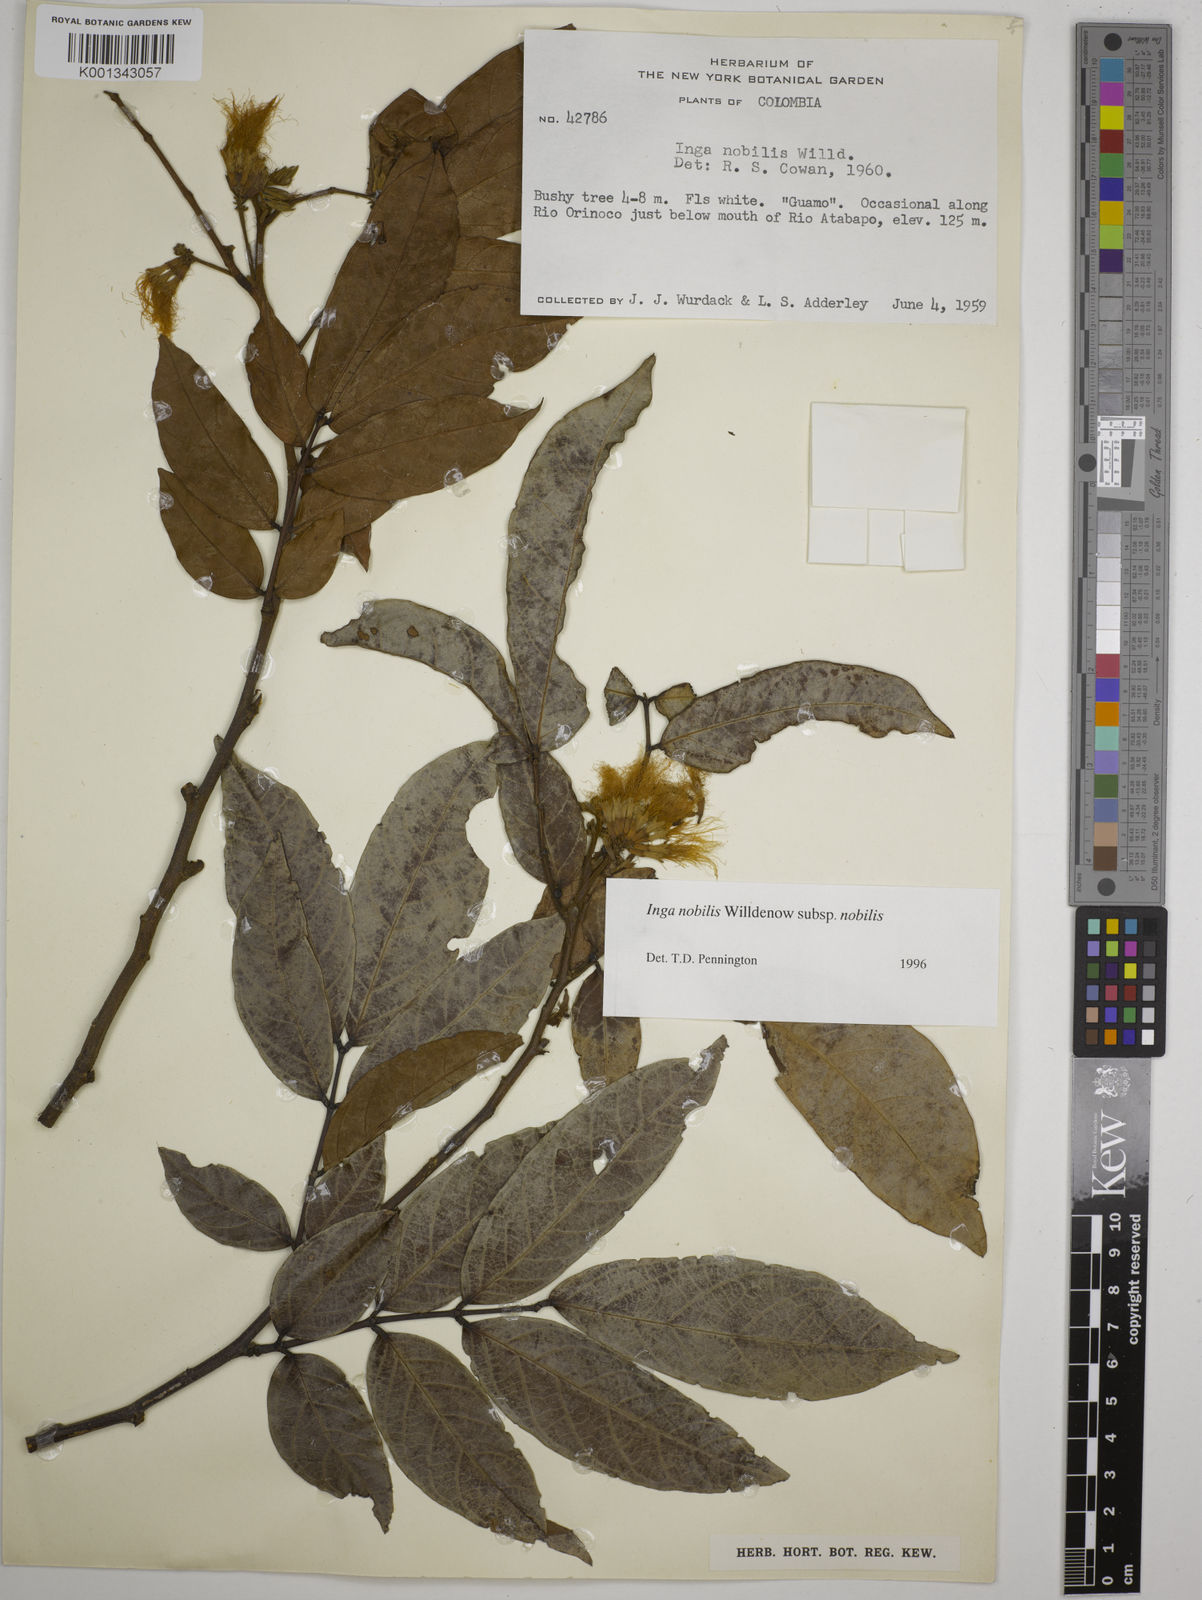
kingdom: Plantae
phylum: Tracheophyta
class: Magnoliopsida
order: Fabales
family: Fabaceae
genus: Inga
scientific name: Inga nobilis
